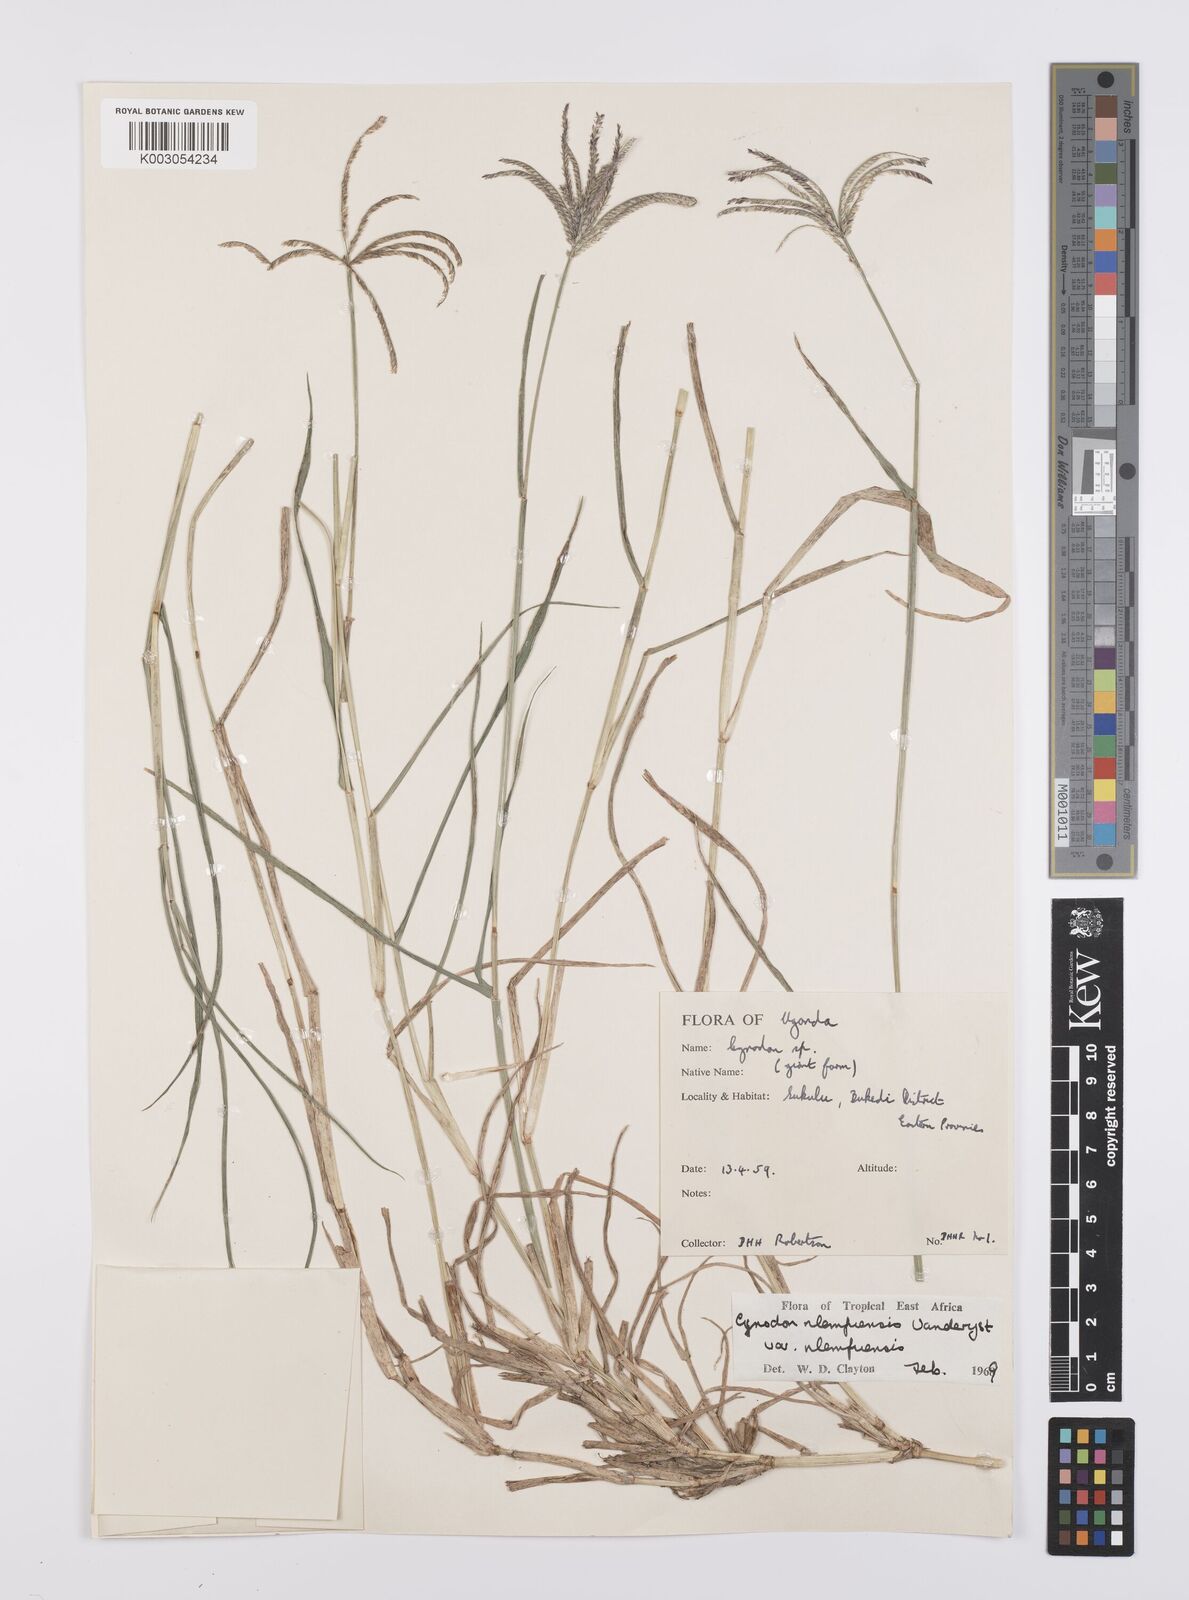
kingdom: Plantae
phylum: Tracheophyta
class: Liliopsida
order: Poales
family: Poaceae
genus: Cynodon
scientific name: Cynodon nlemfuensis
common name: African bermudagrass
